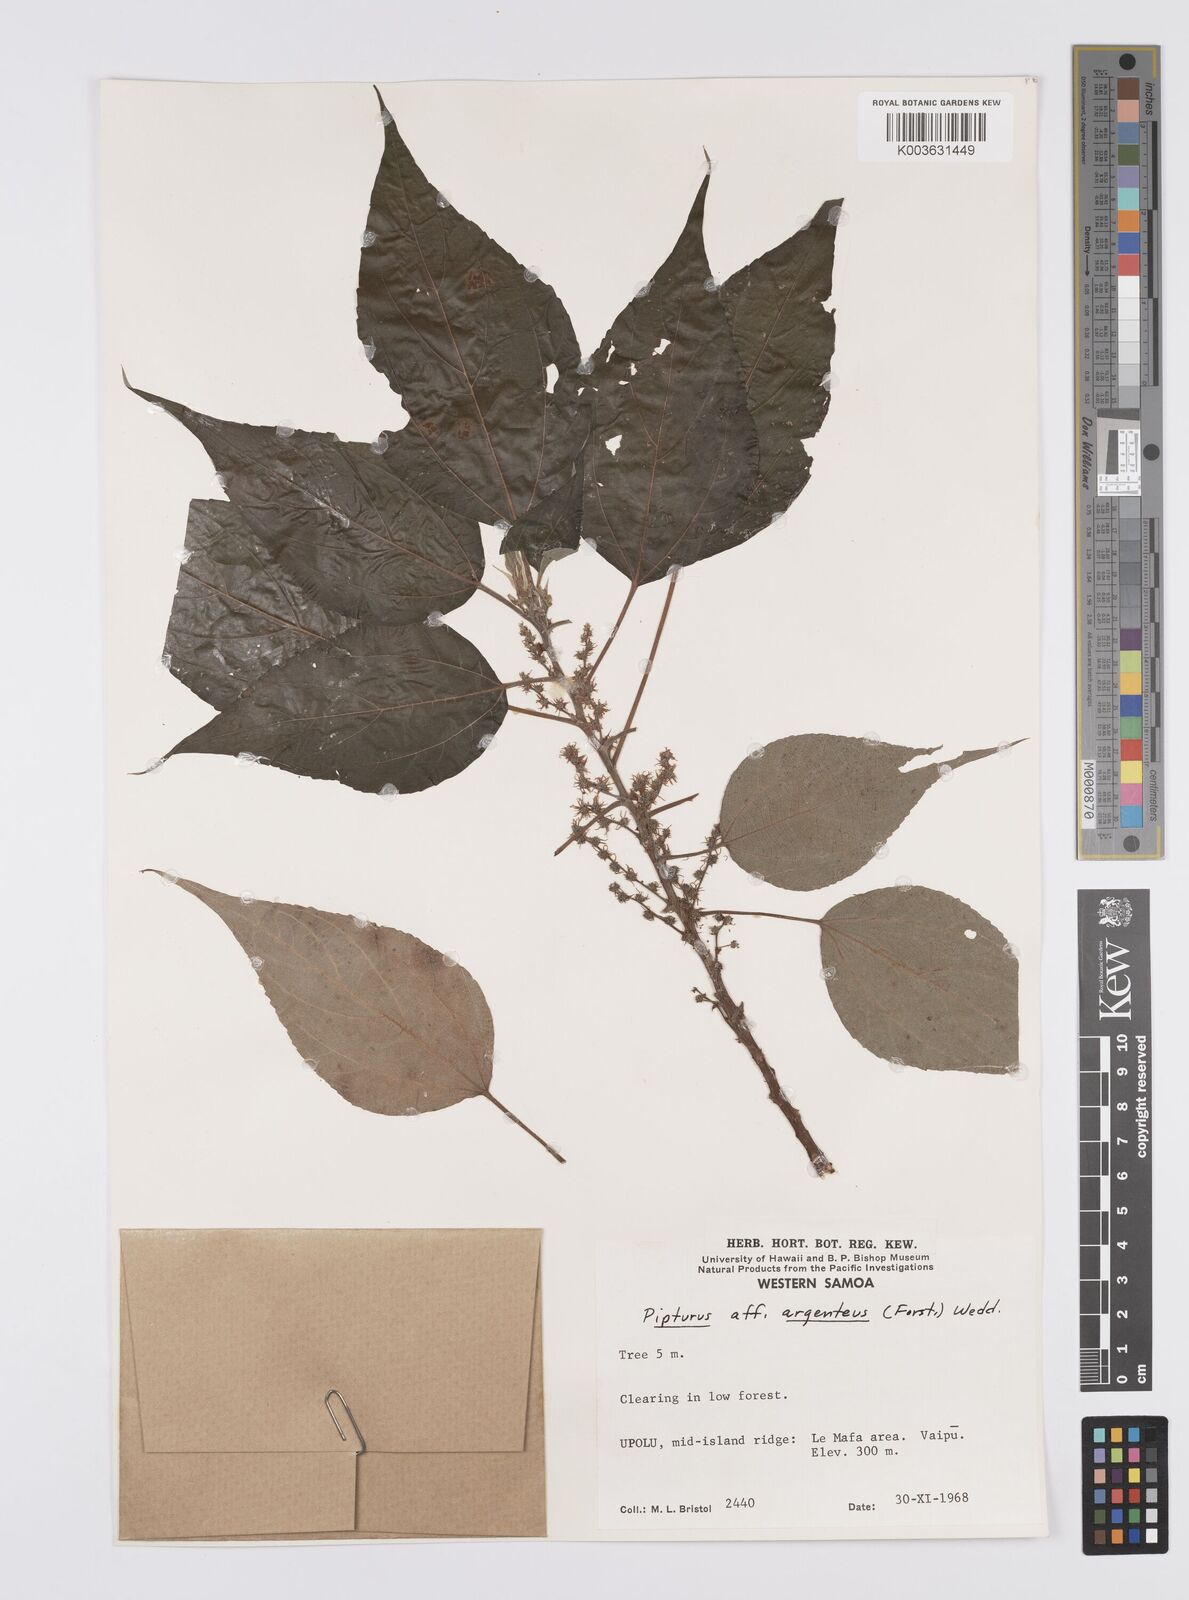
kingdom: Plantae
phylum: Tracheophyta
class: Magnoliopsida
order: Rosales
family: Urticaceae
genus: Pipturus
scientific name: Pipturus argenteus
